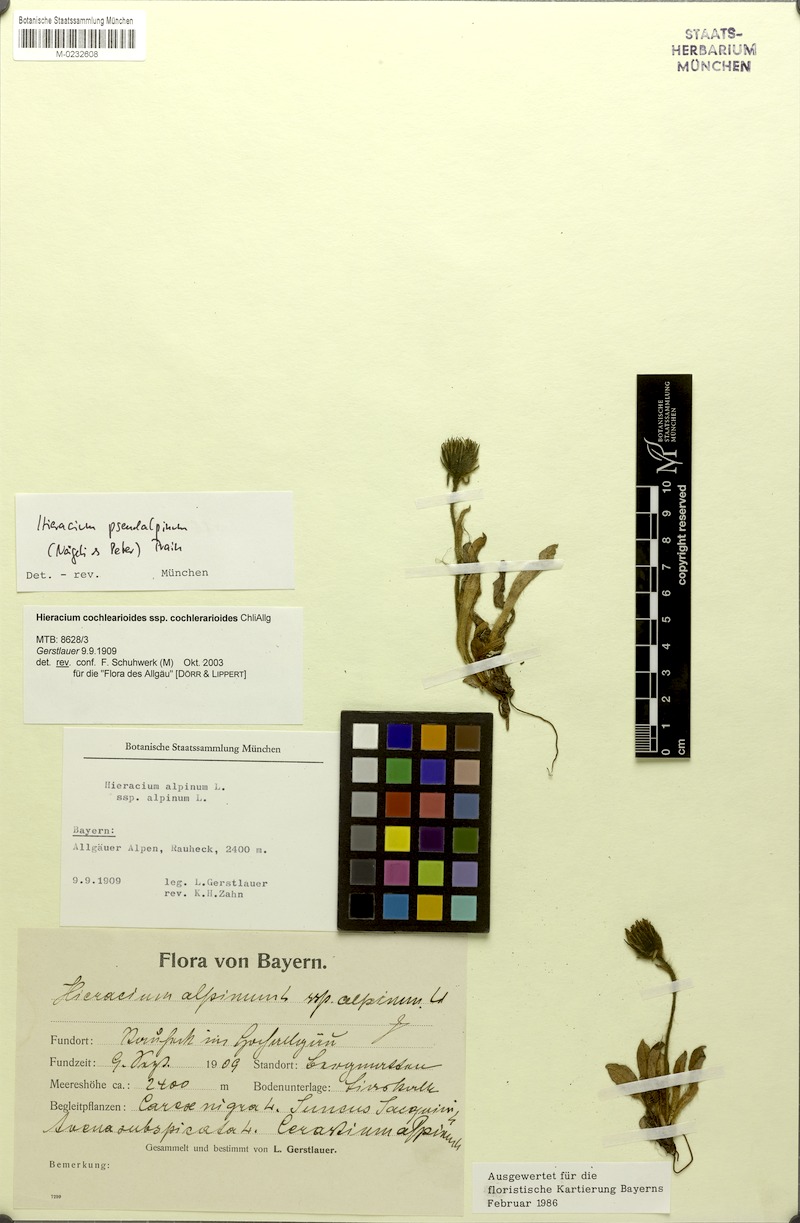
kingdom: Plantae
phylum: Tracheophyta
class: Magnoliopsida
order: Asterales
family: Asteraceae
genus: Hieracium
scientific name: Hieracium pseudalpinum
